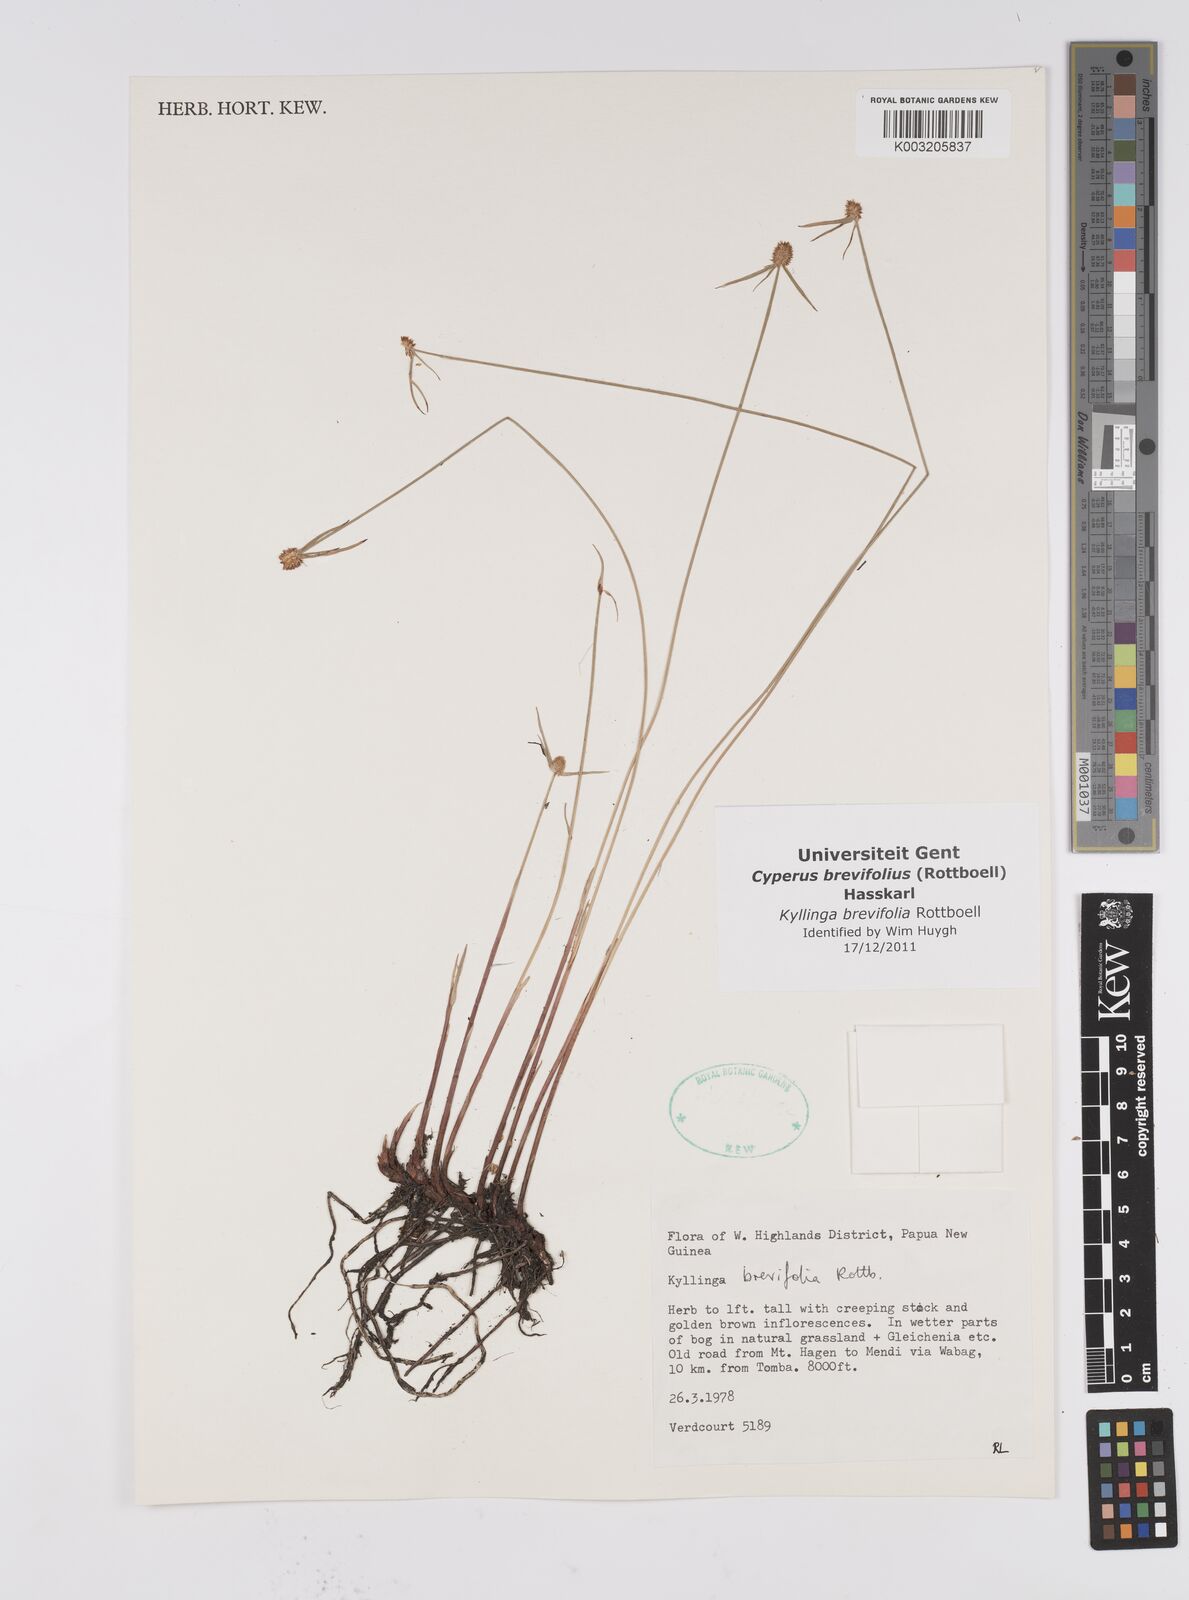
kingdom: Plantae
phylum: Tracheophyta
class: Liliopsida
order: Poales
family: Cyperaceae
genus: Cyperus
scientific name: Cyperus brevifolius
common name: Globe kyllinga
